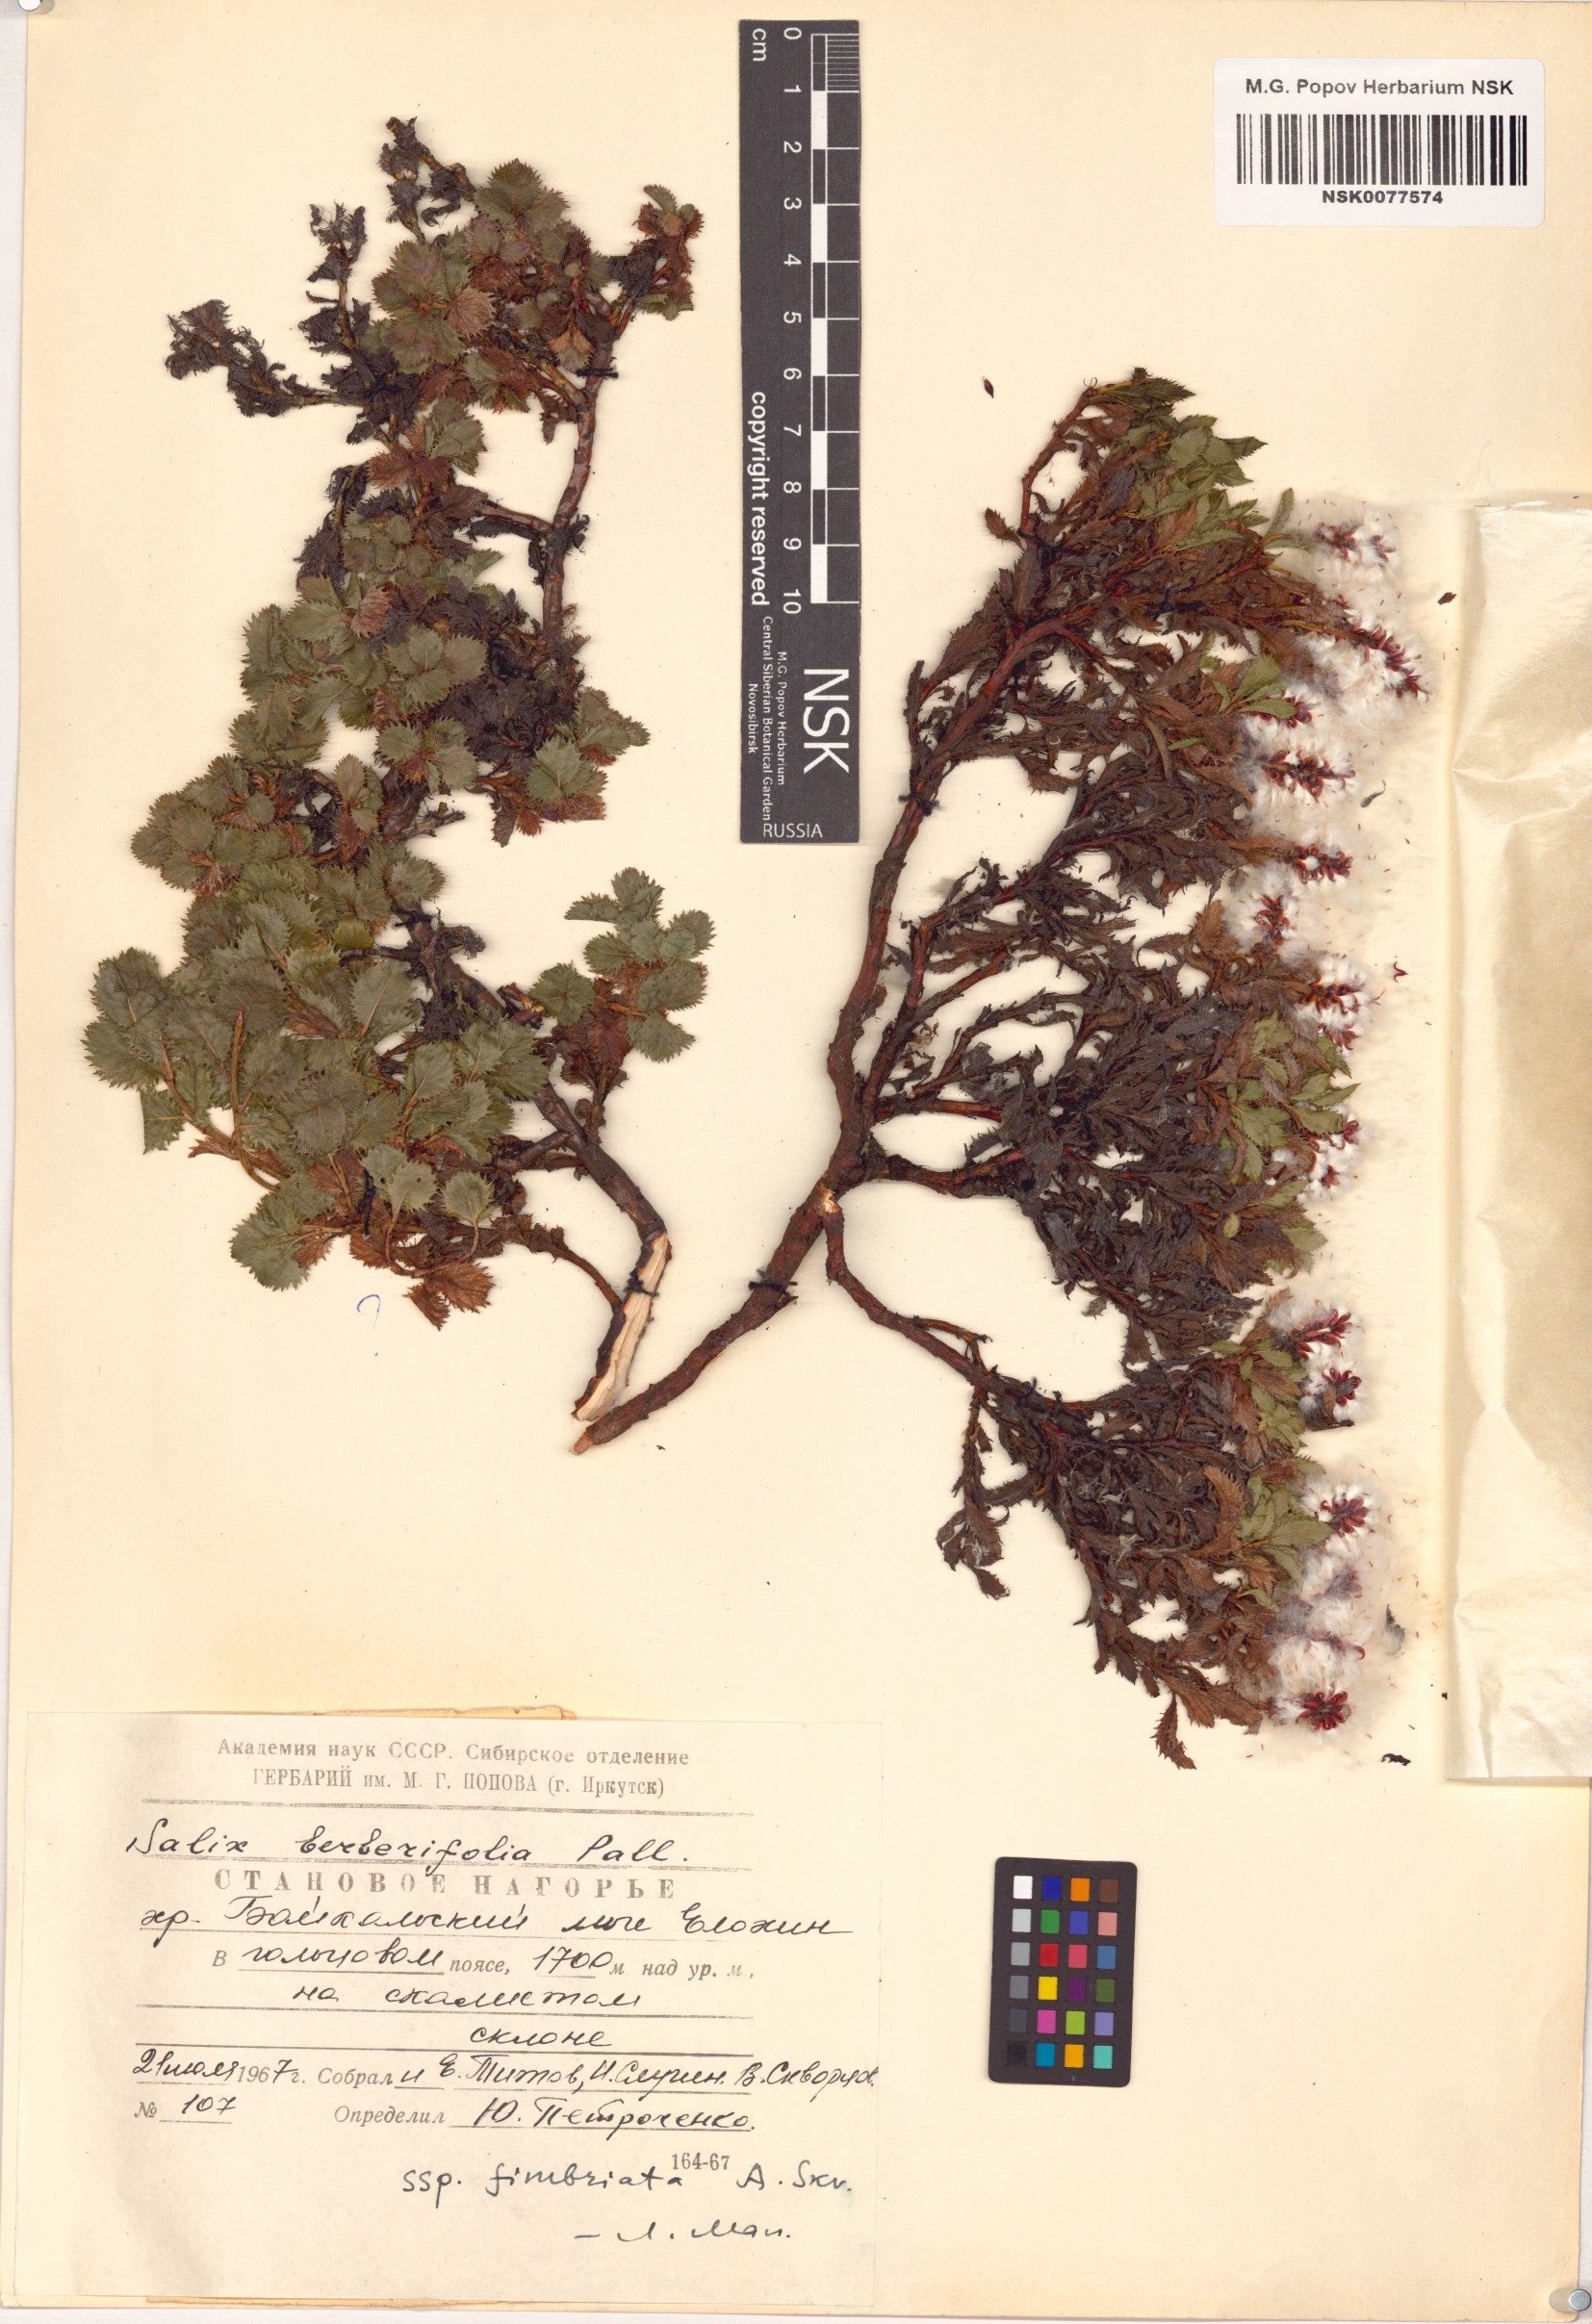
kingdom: Plantae
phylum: Tracheophyta
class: Magnoliopsida
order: Malpighiales
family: Salicaceae
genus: Salix
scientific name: Salix berberifolia
